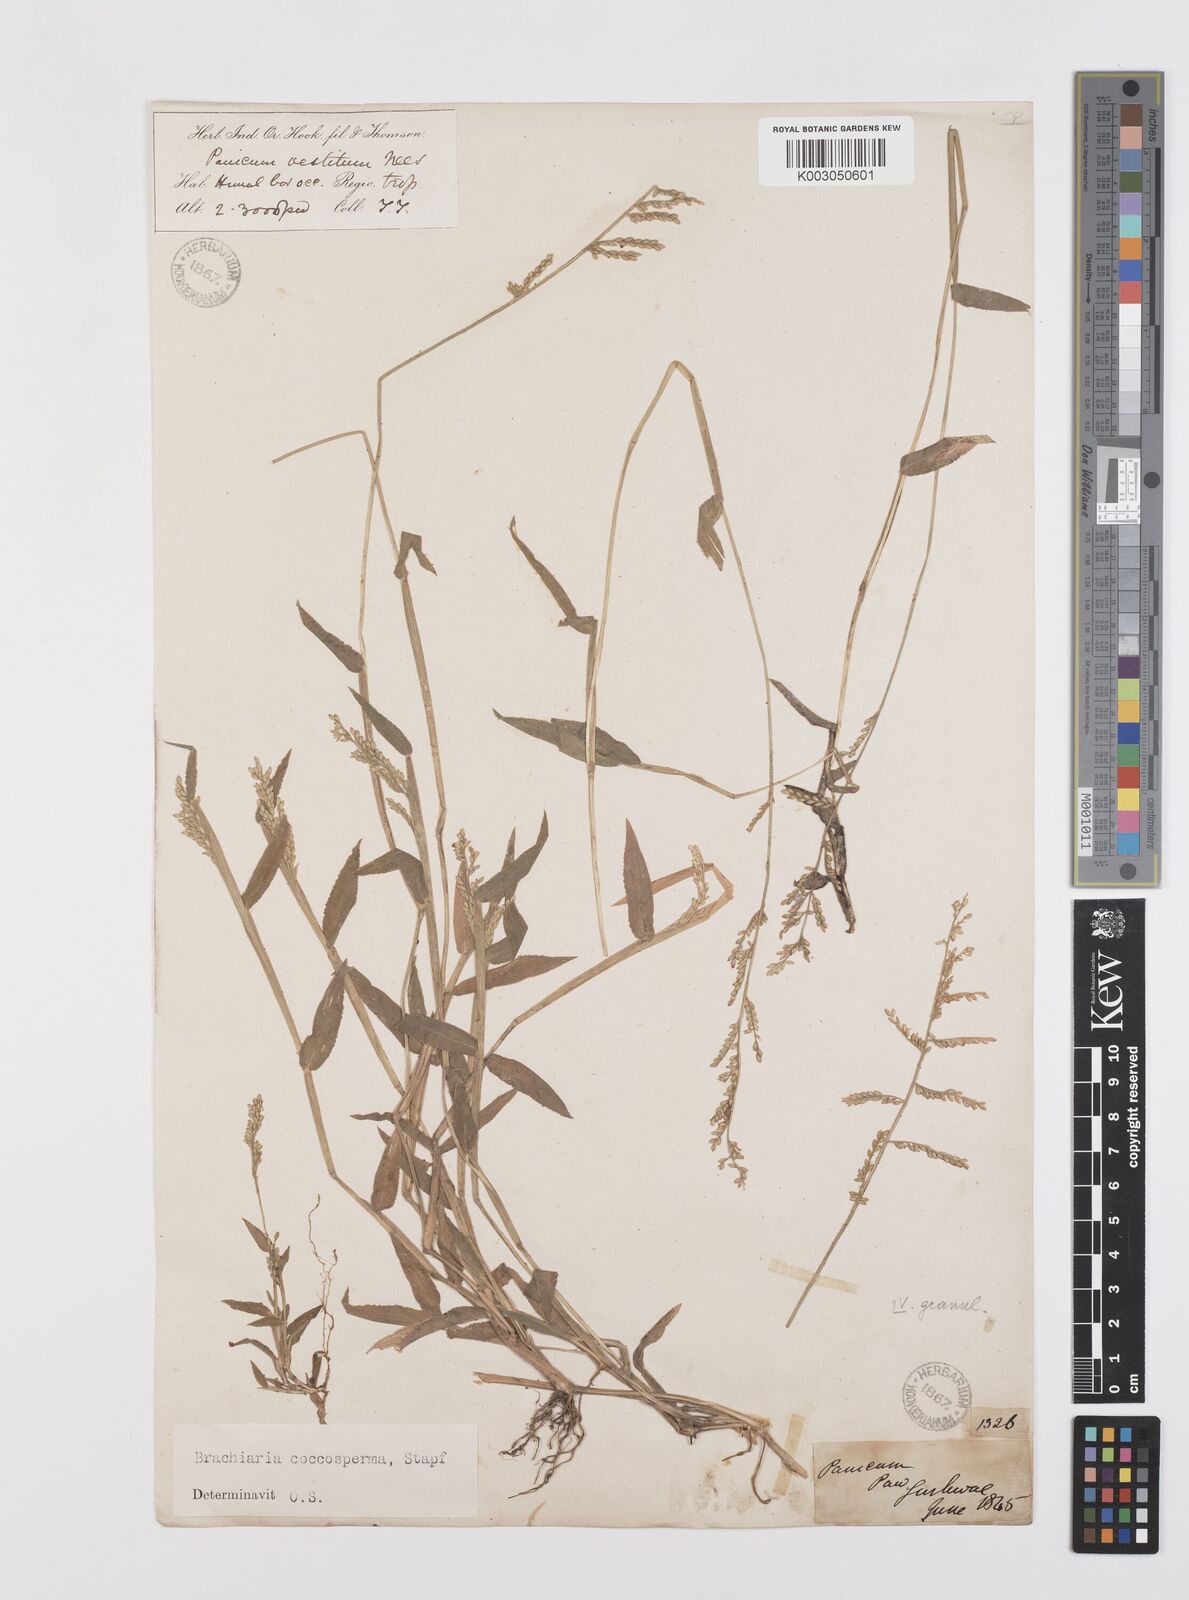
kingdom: Plantae
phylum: Tracheophyta
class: Liliopsida
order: Poales
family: Poaceae
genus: Urochloa
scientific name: Urochloa villosa
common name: Hairy signalgrass
